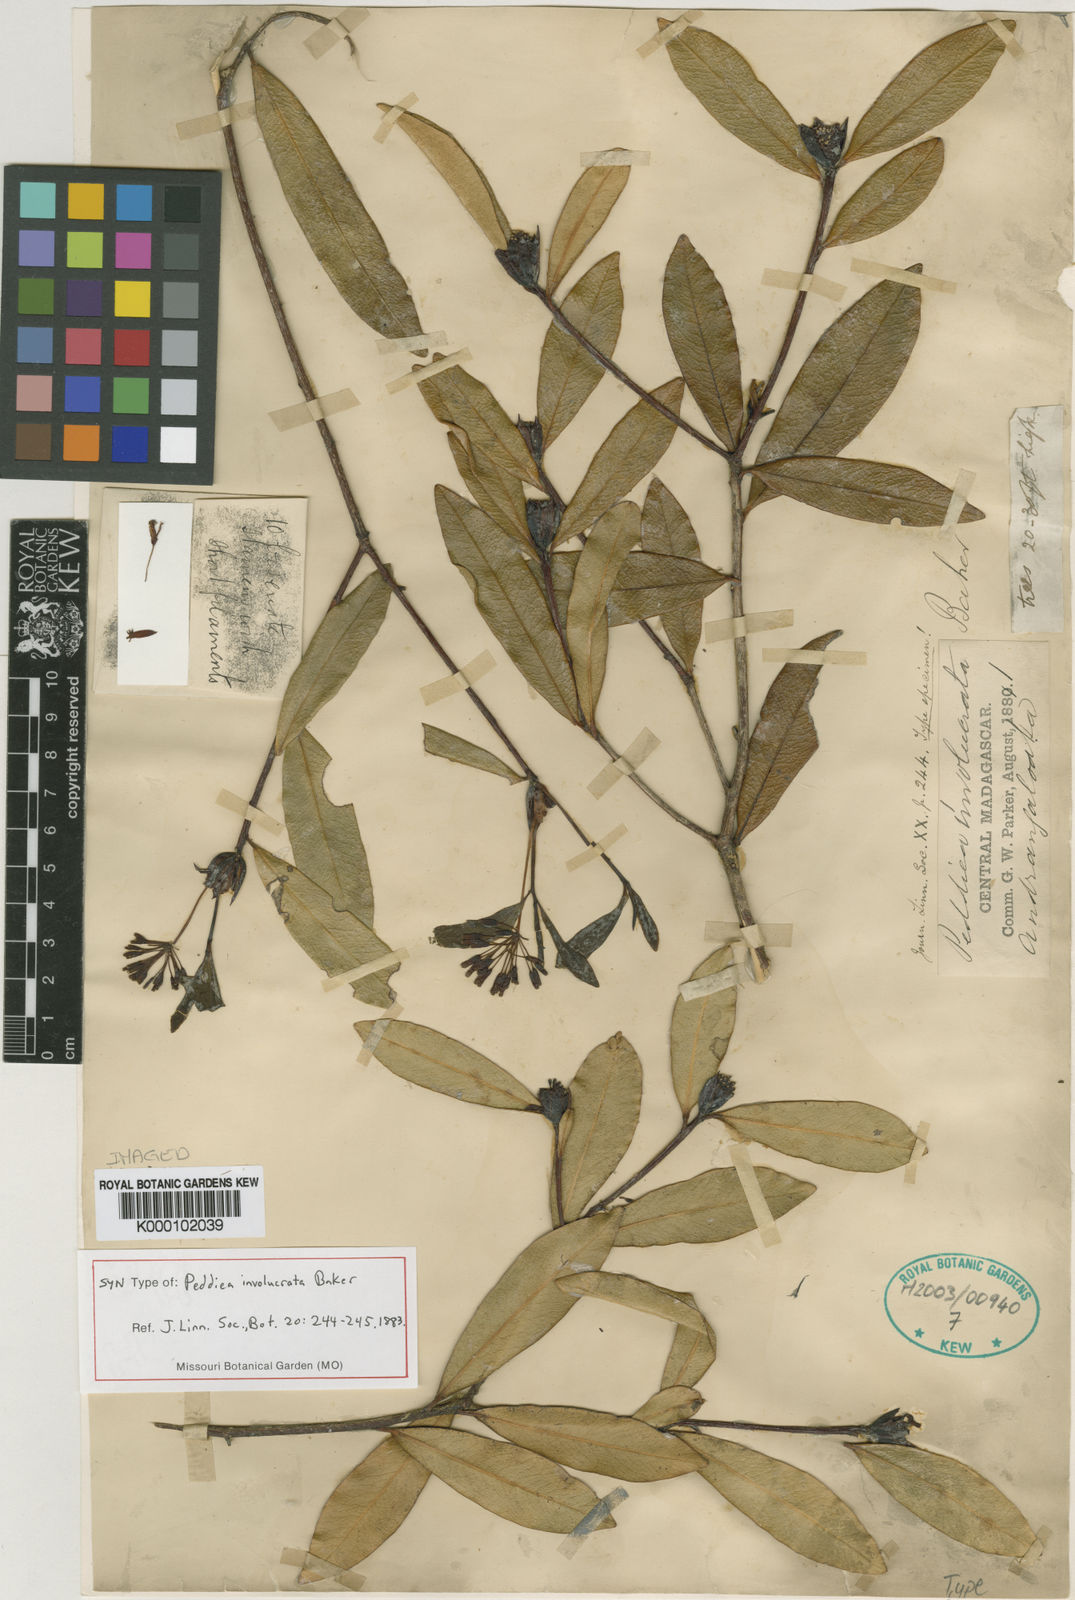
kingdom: Plantae
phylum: Tracheophyta
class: Magnoliopsida
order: Malvales
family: Thymelaeaceae
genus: Peddiea
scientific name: Peddiea involucrata
